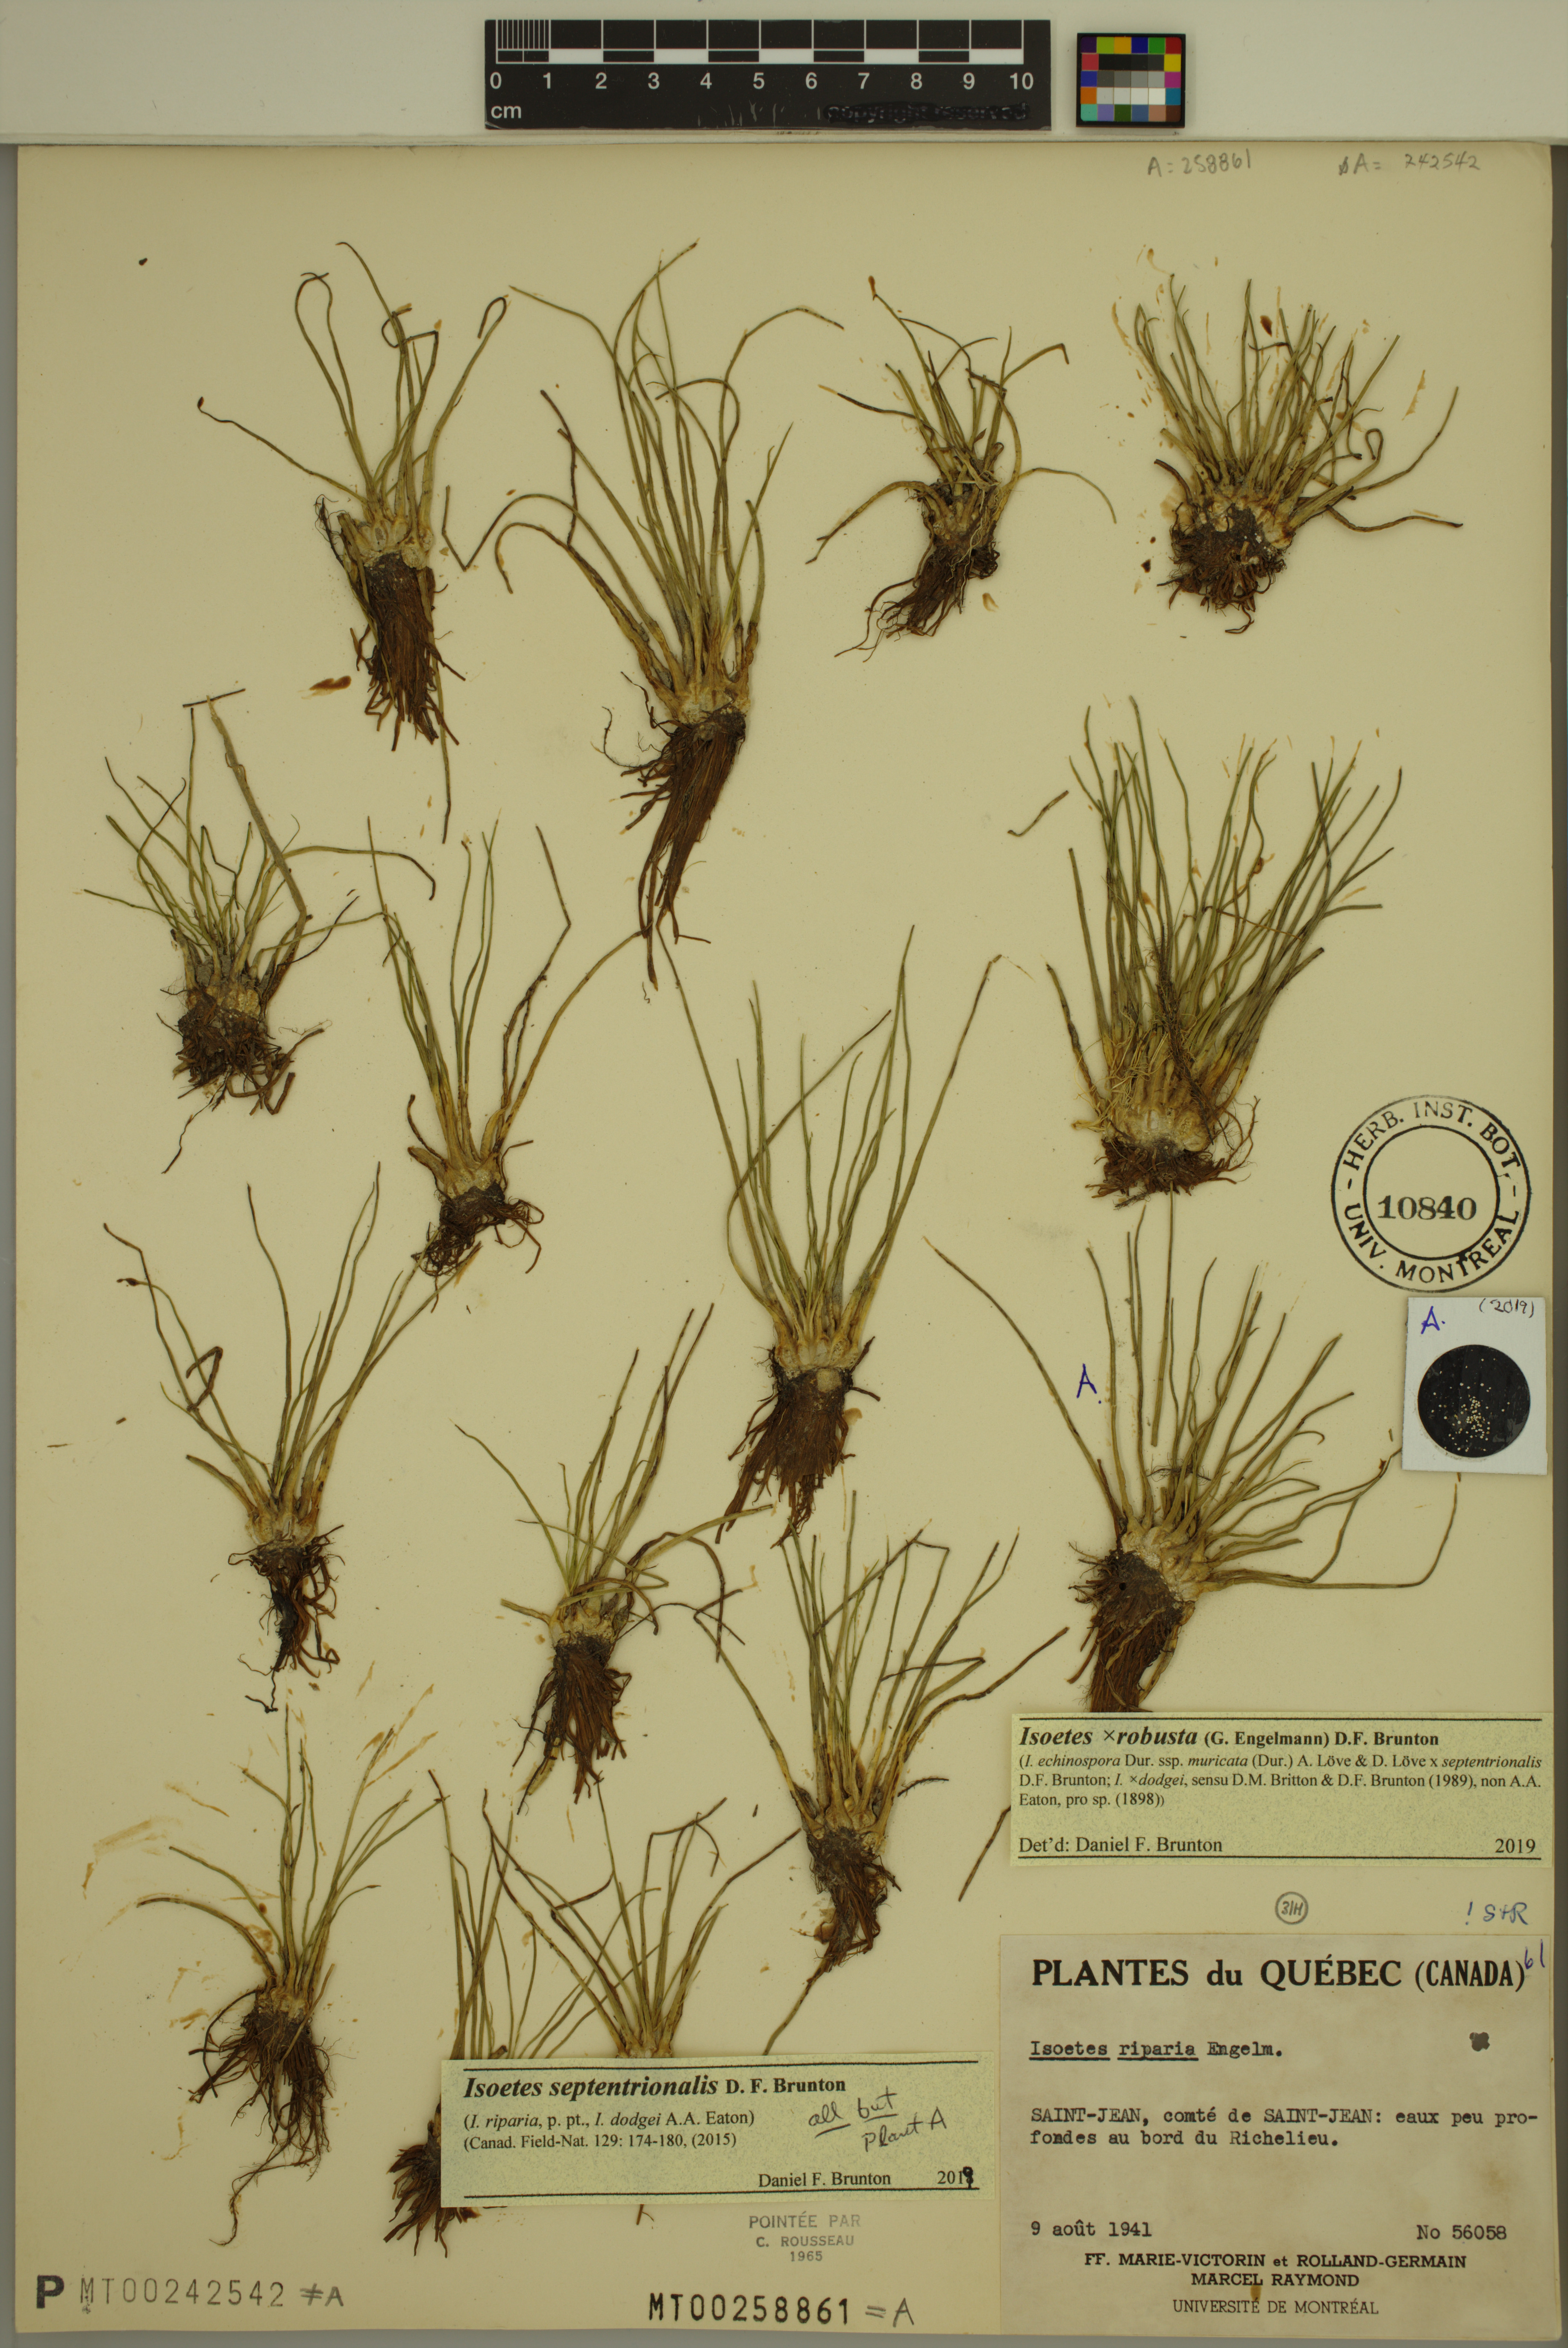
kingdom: Plantae
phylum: Tracheophyta
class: Lycopodiopsida
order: Isoetales
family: Isoetaceae
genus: Isoetes
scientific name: Isoetes septentrionalis
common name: Northern quillwort
